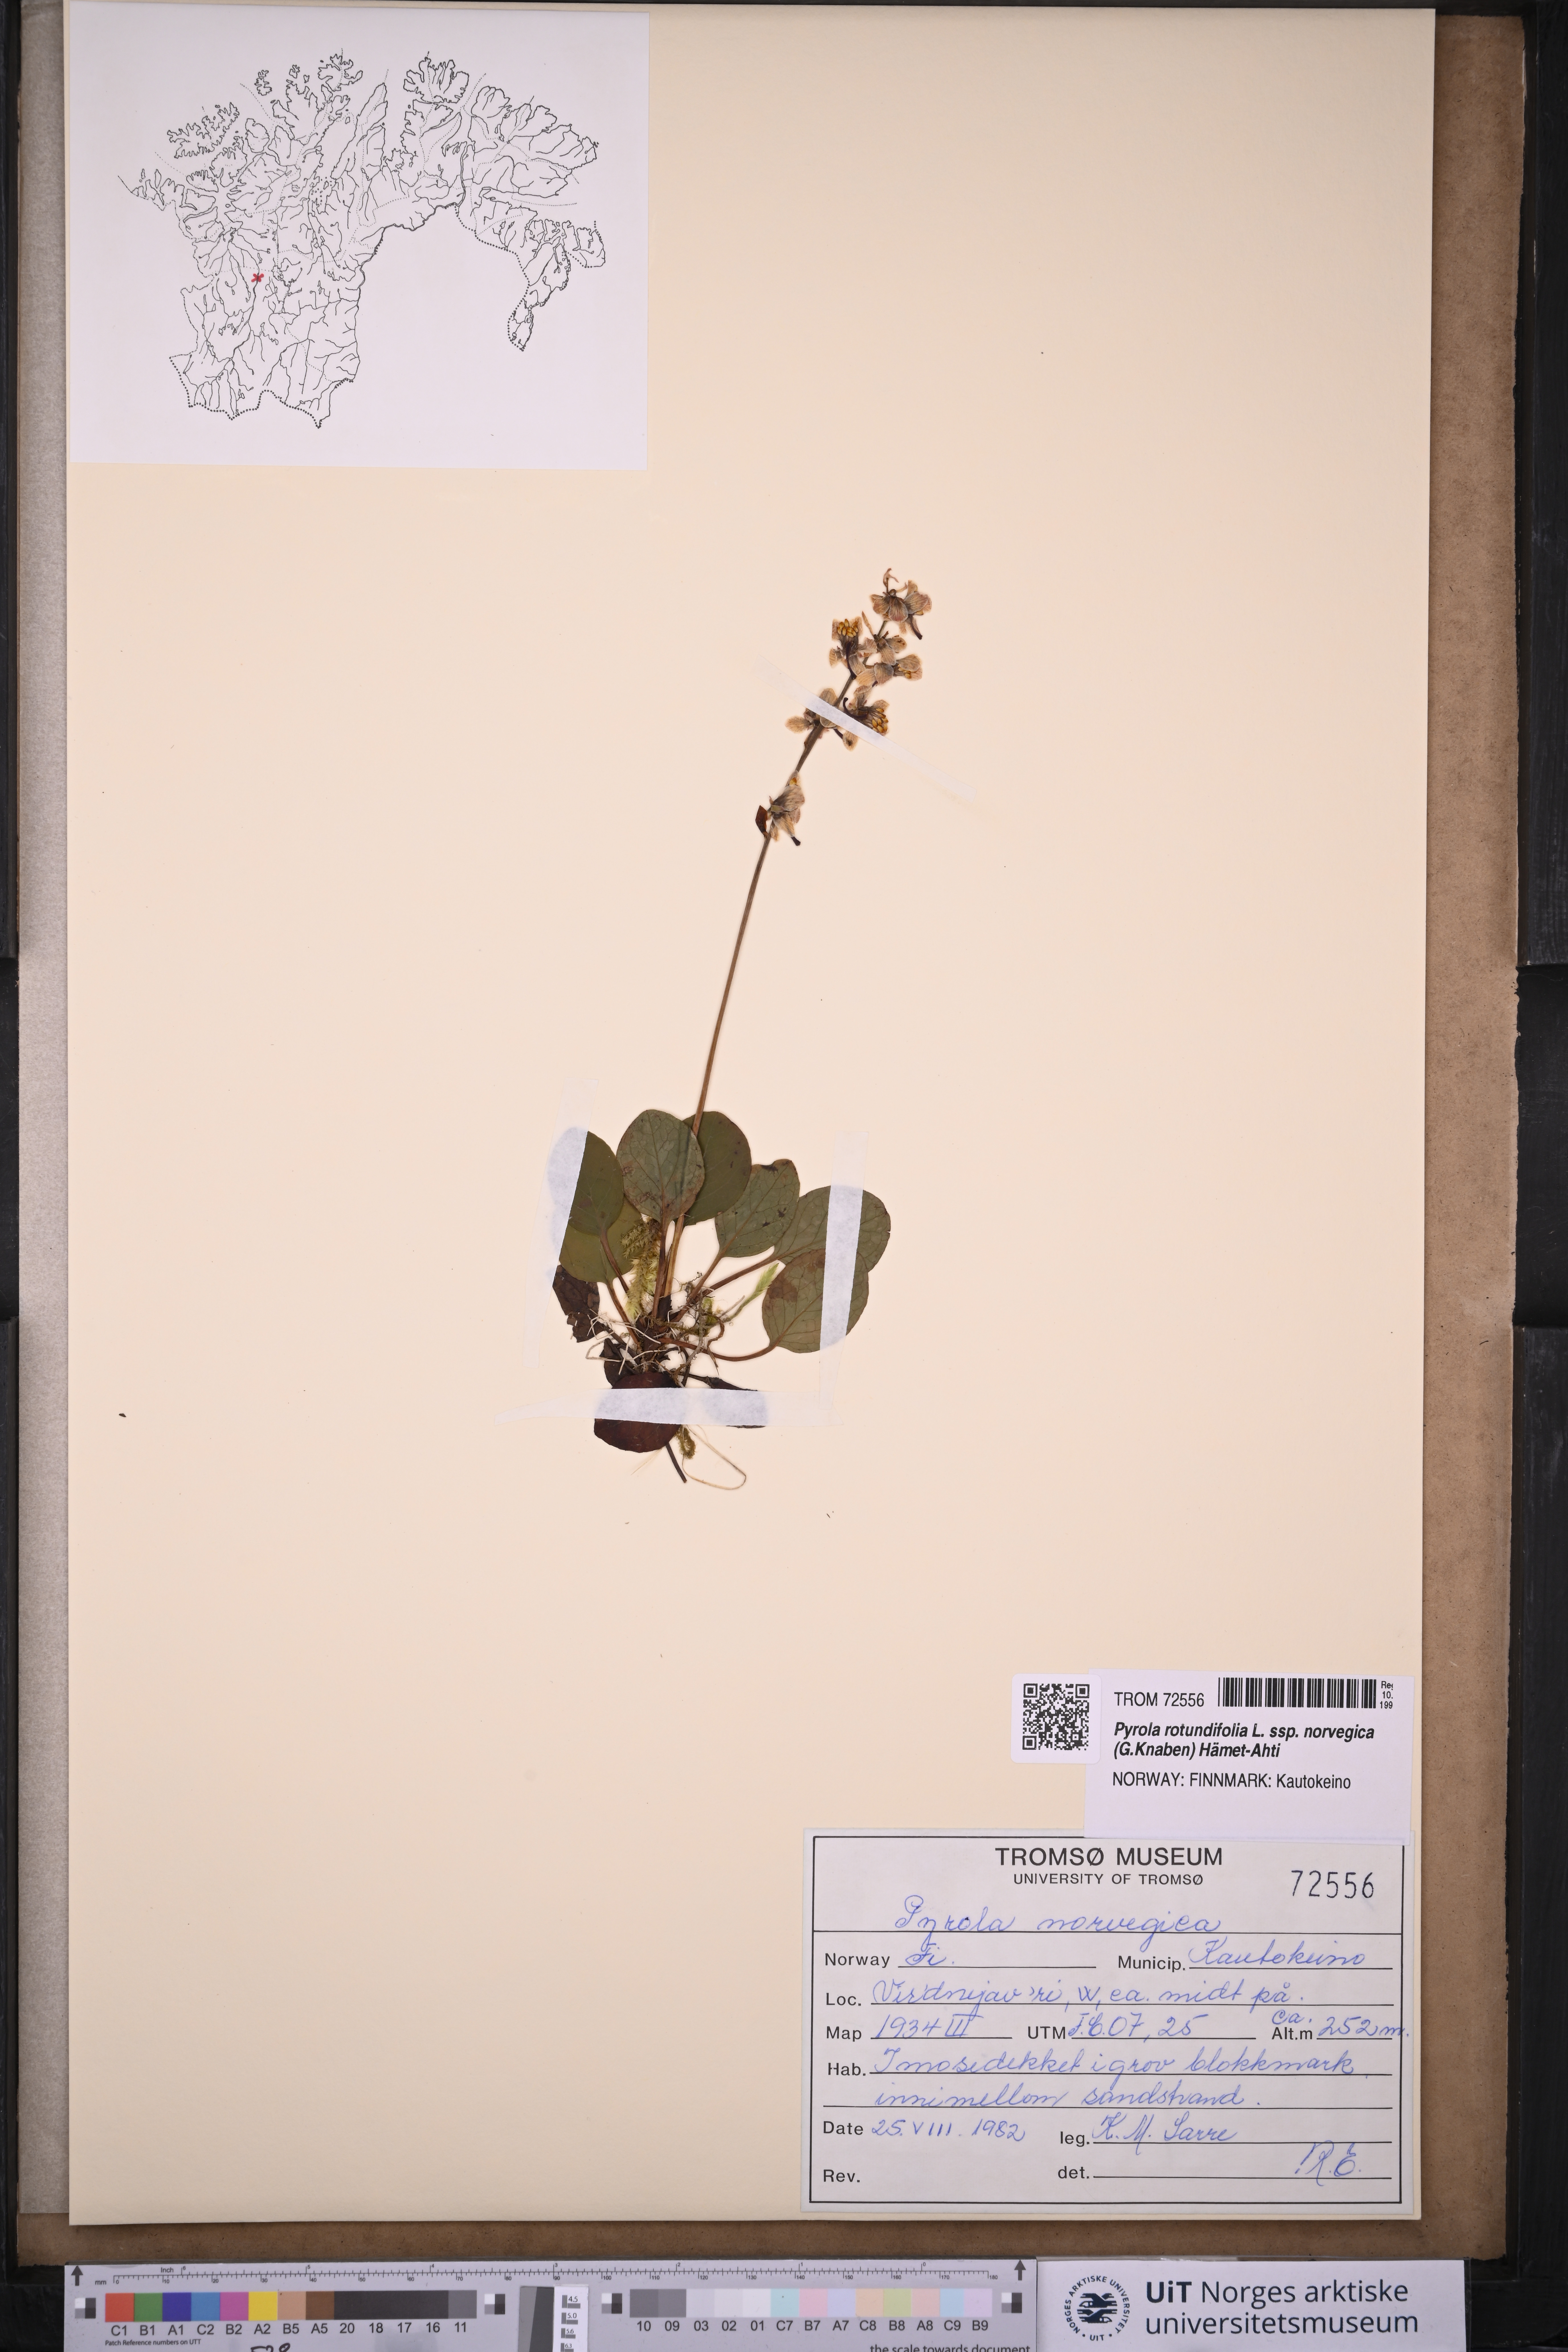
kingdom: Plantae
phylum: Tracheophyta
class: Magnoliopsida
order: Ericales
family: Ericaceae
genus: Pyrola
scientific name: Pyrola rotundifolia
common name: Round-leaved wintergreen
